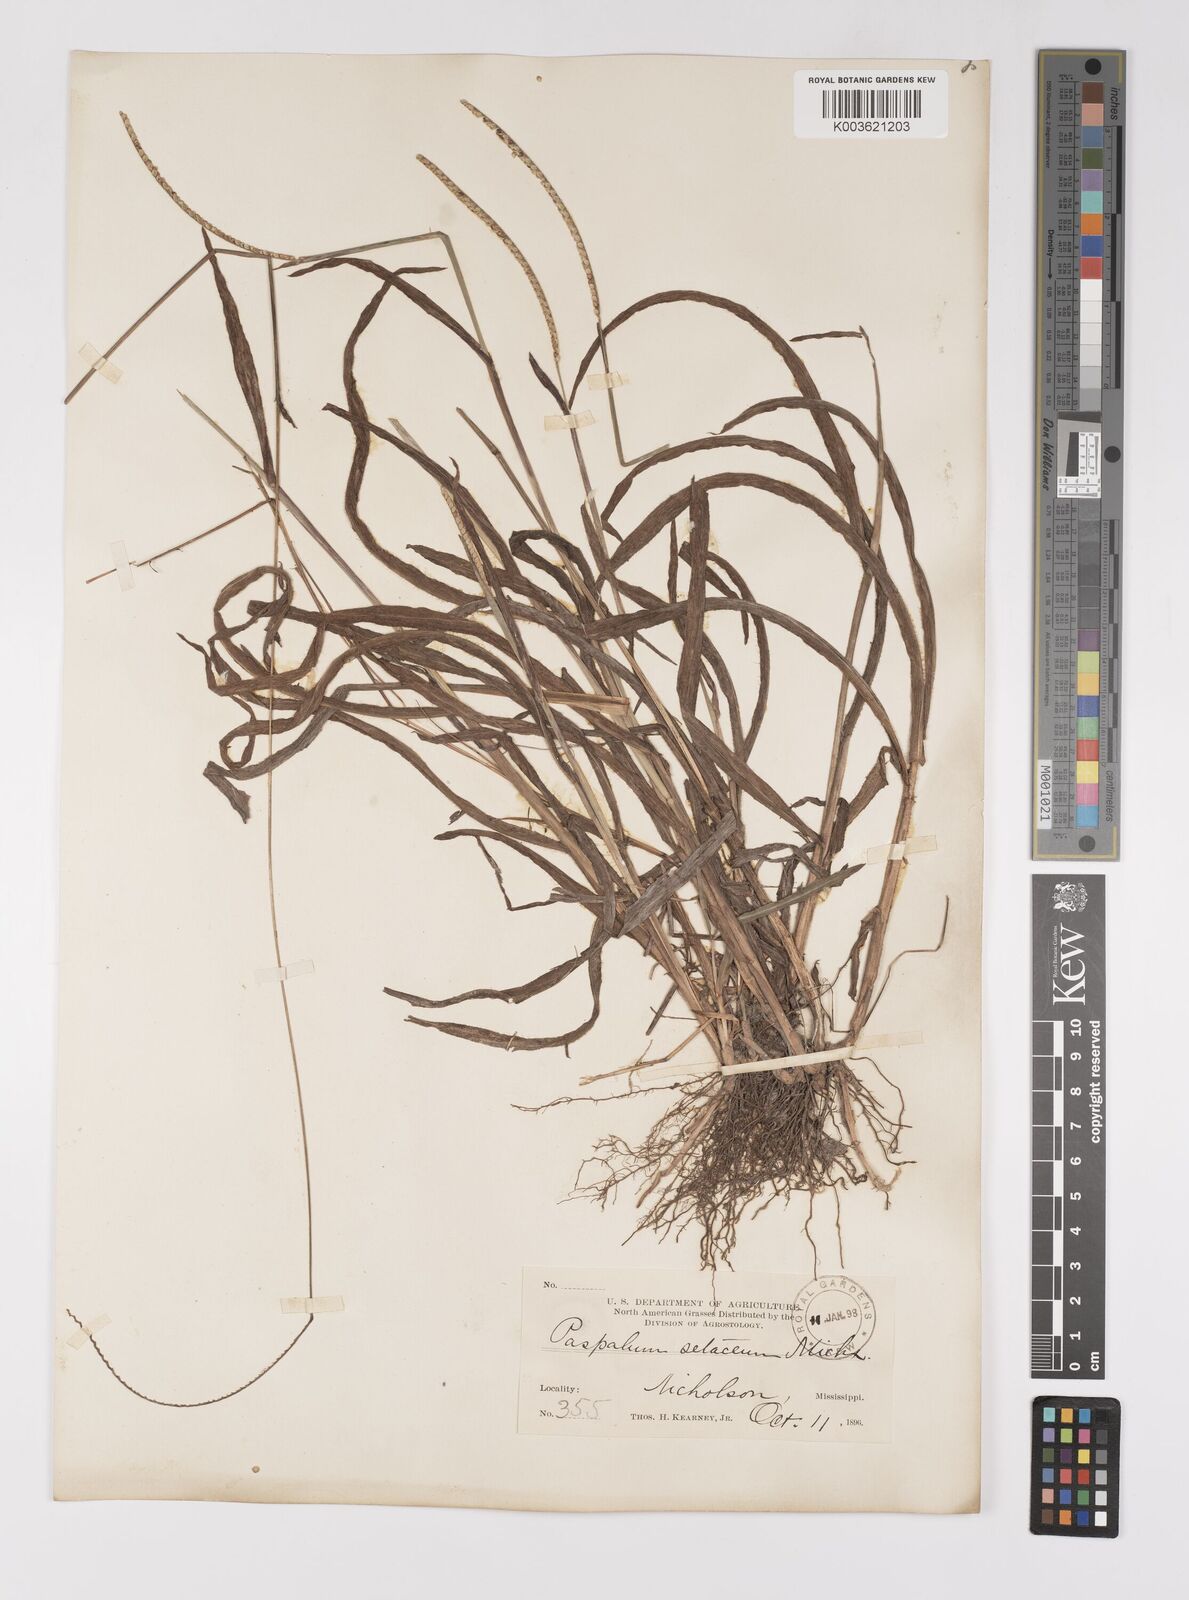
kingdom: Plantae
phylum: Tracheophyta
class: Liliopsida
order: Poales
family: Poaceae
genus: Paspalum
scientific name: Paspalum setaceum
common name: Slender paspalum
